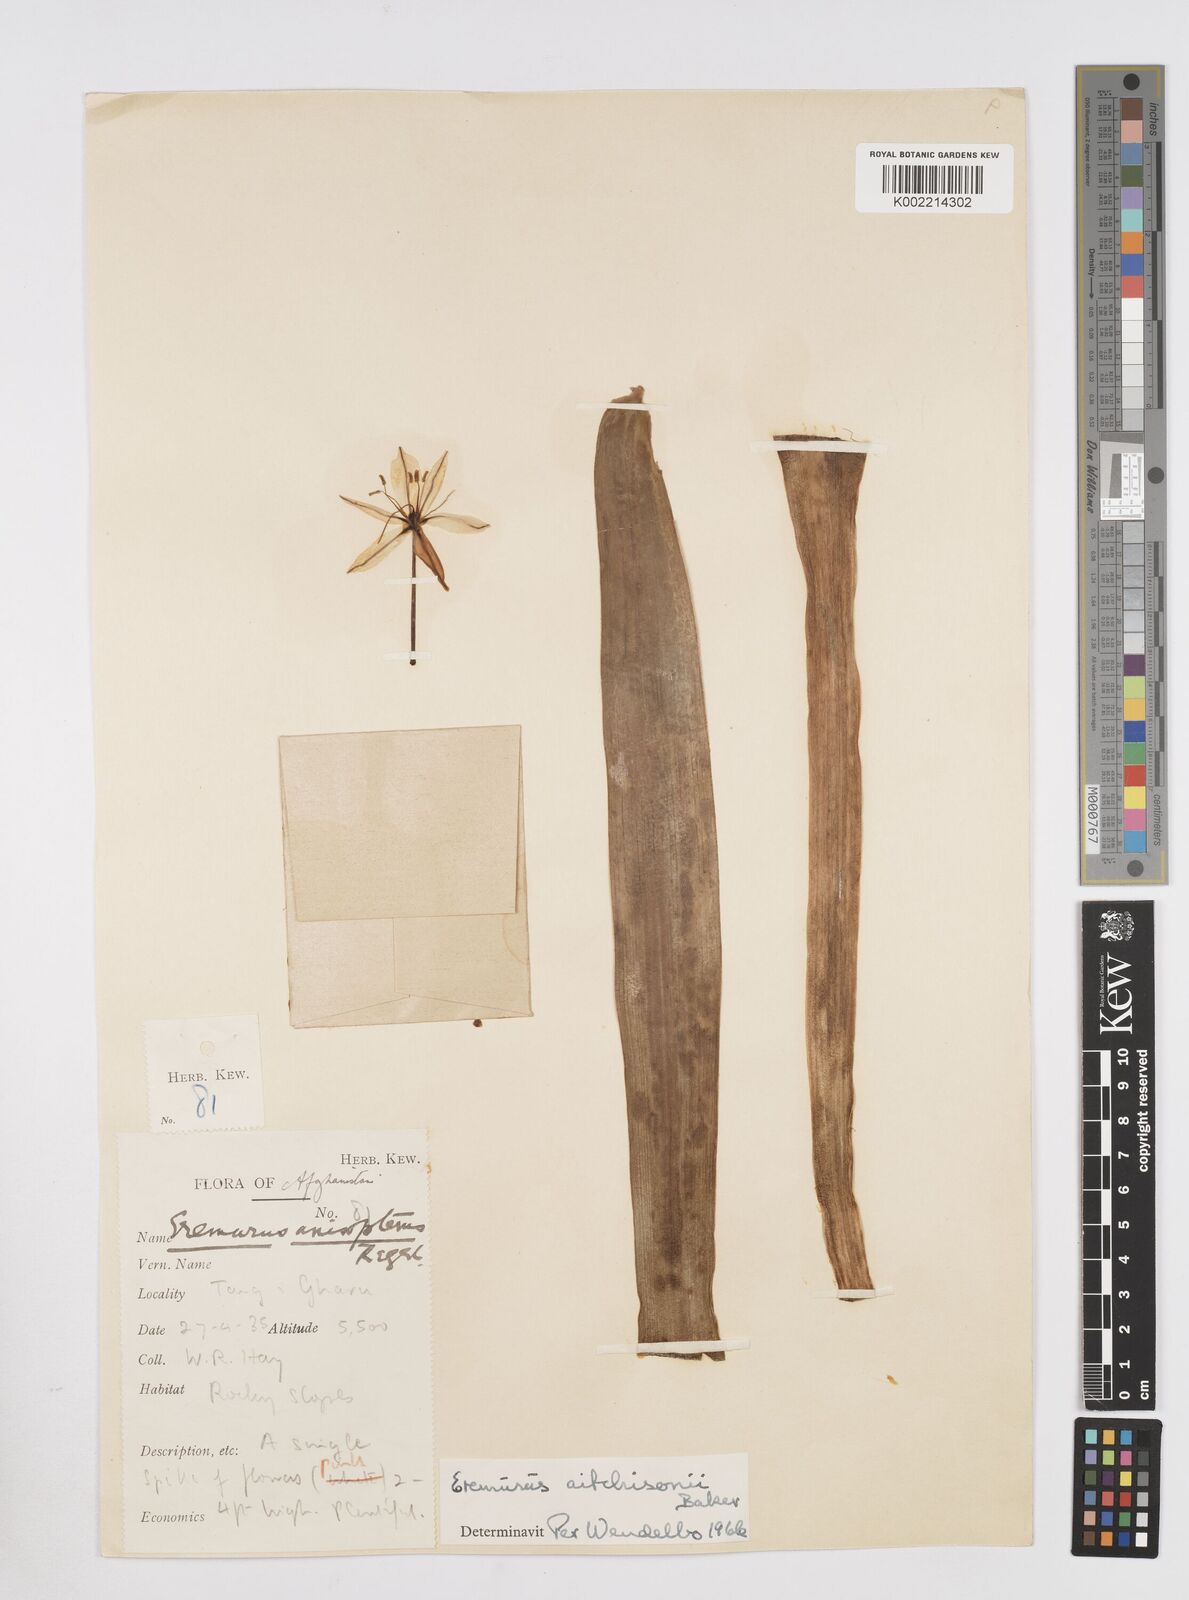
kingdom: Plantae
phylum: Tracheophyta
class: Liliopsida
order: Asparagales
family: Asphodelaceae
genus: Eremurus
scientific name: Eremurus aitchisonii
